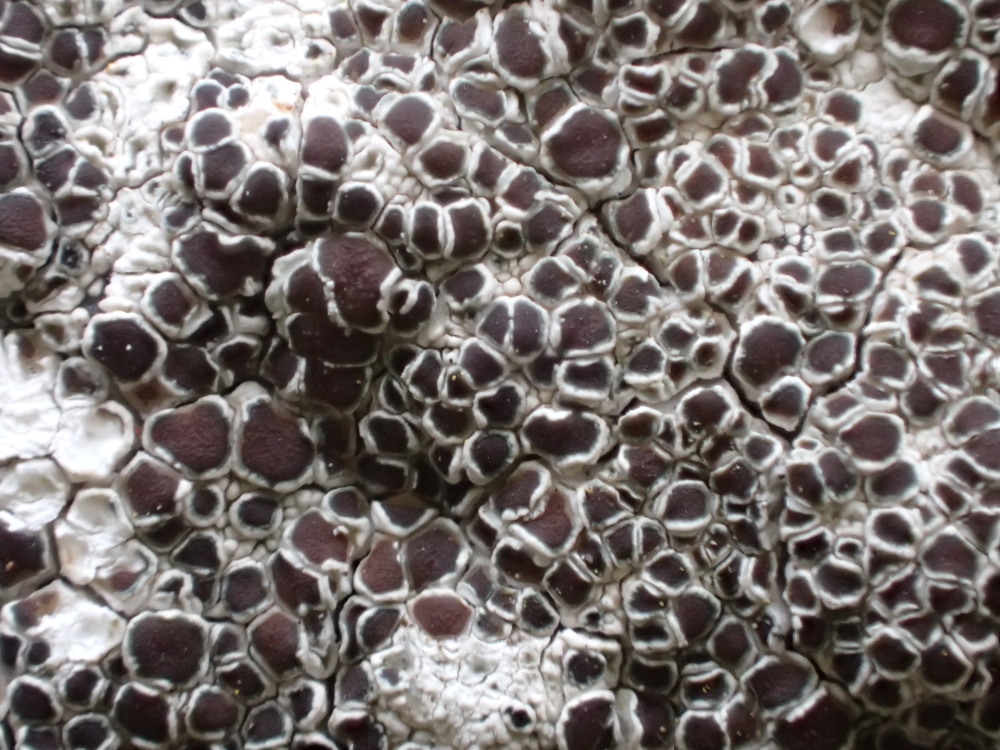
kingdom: Fungi
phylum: Ascomycota
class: Lecanoromycetes
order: Lecanorales
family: Lecanoraceae
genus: Lecanora
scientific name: Lecanora campestris
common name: mur-kantskivelav
